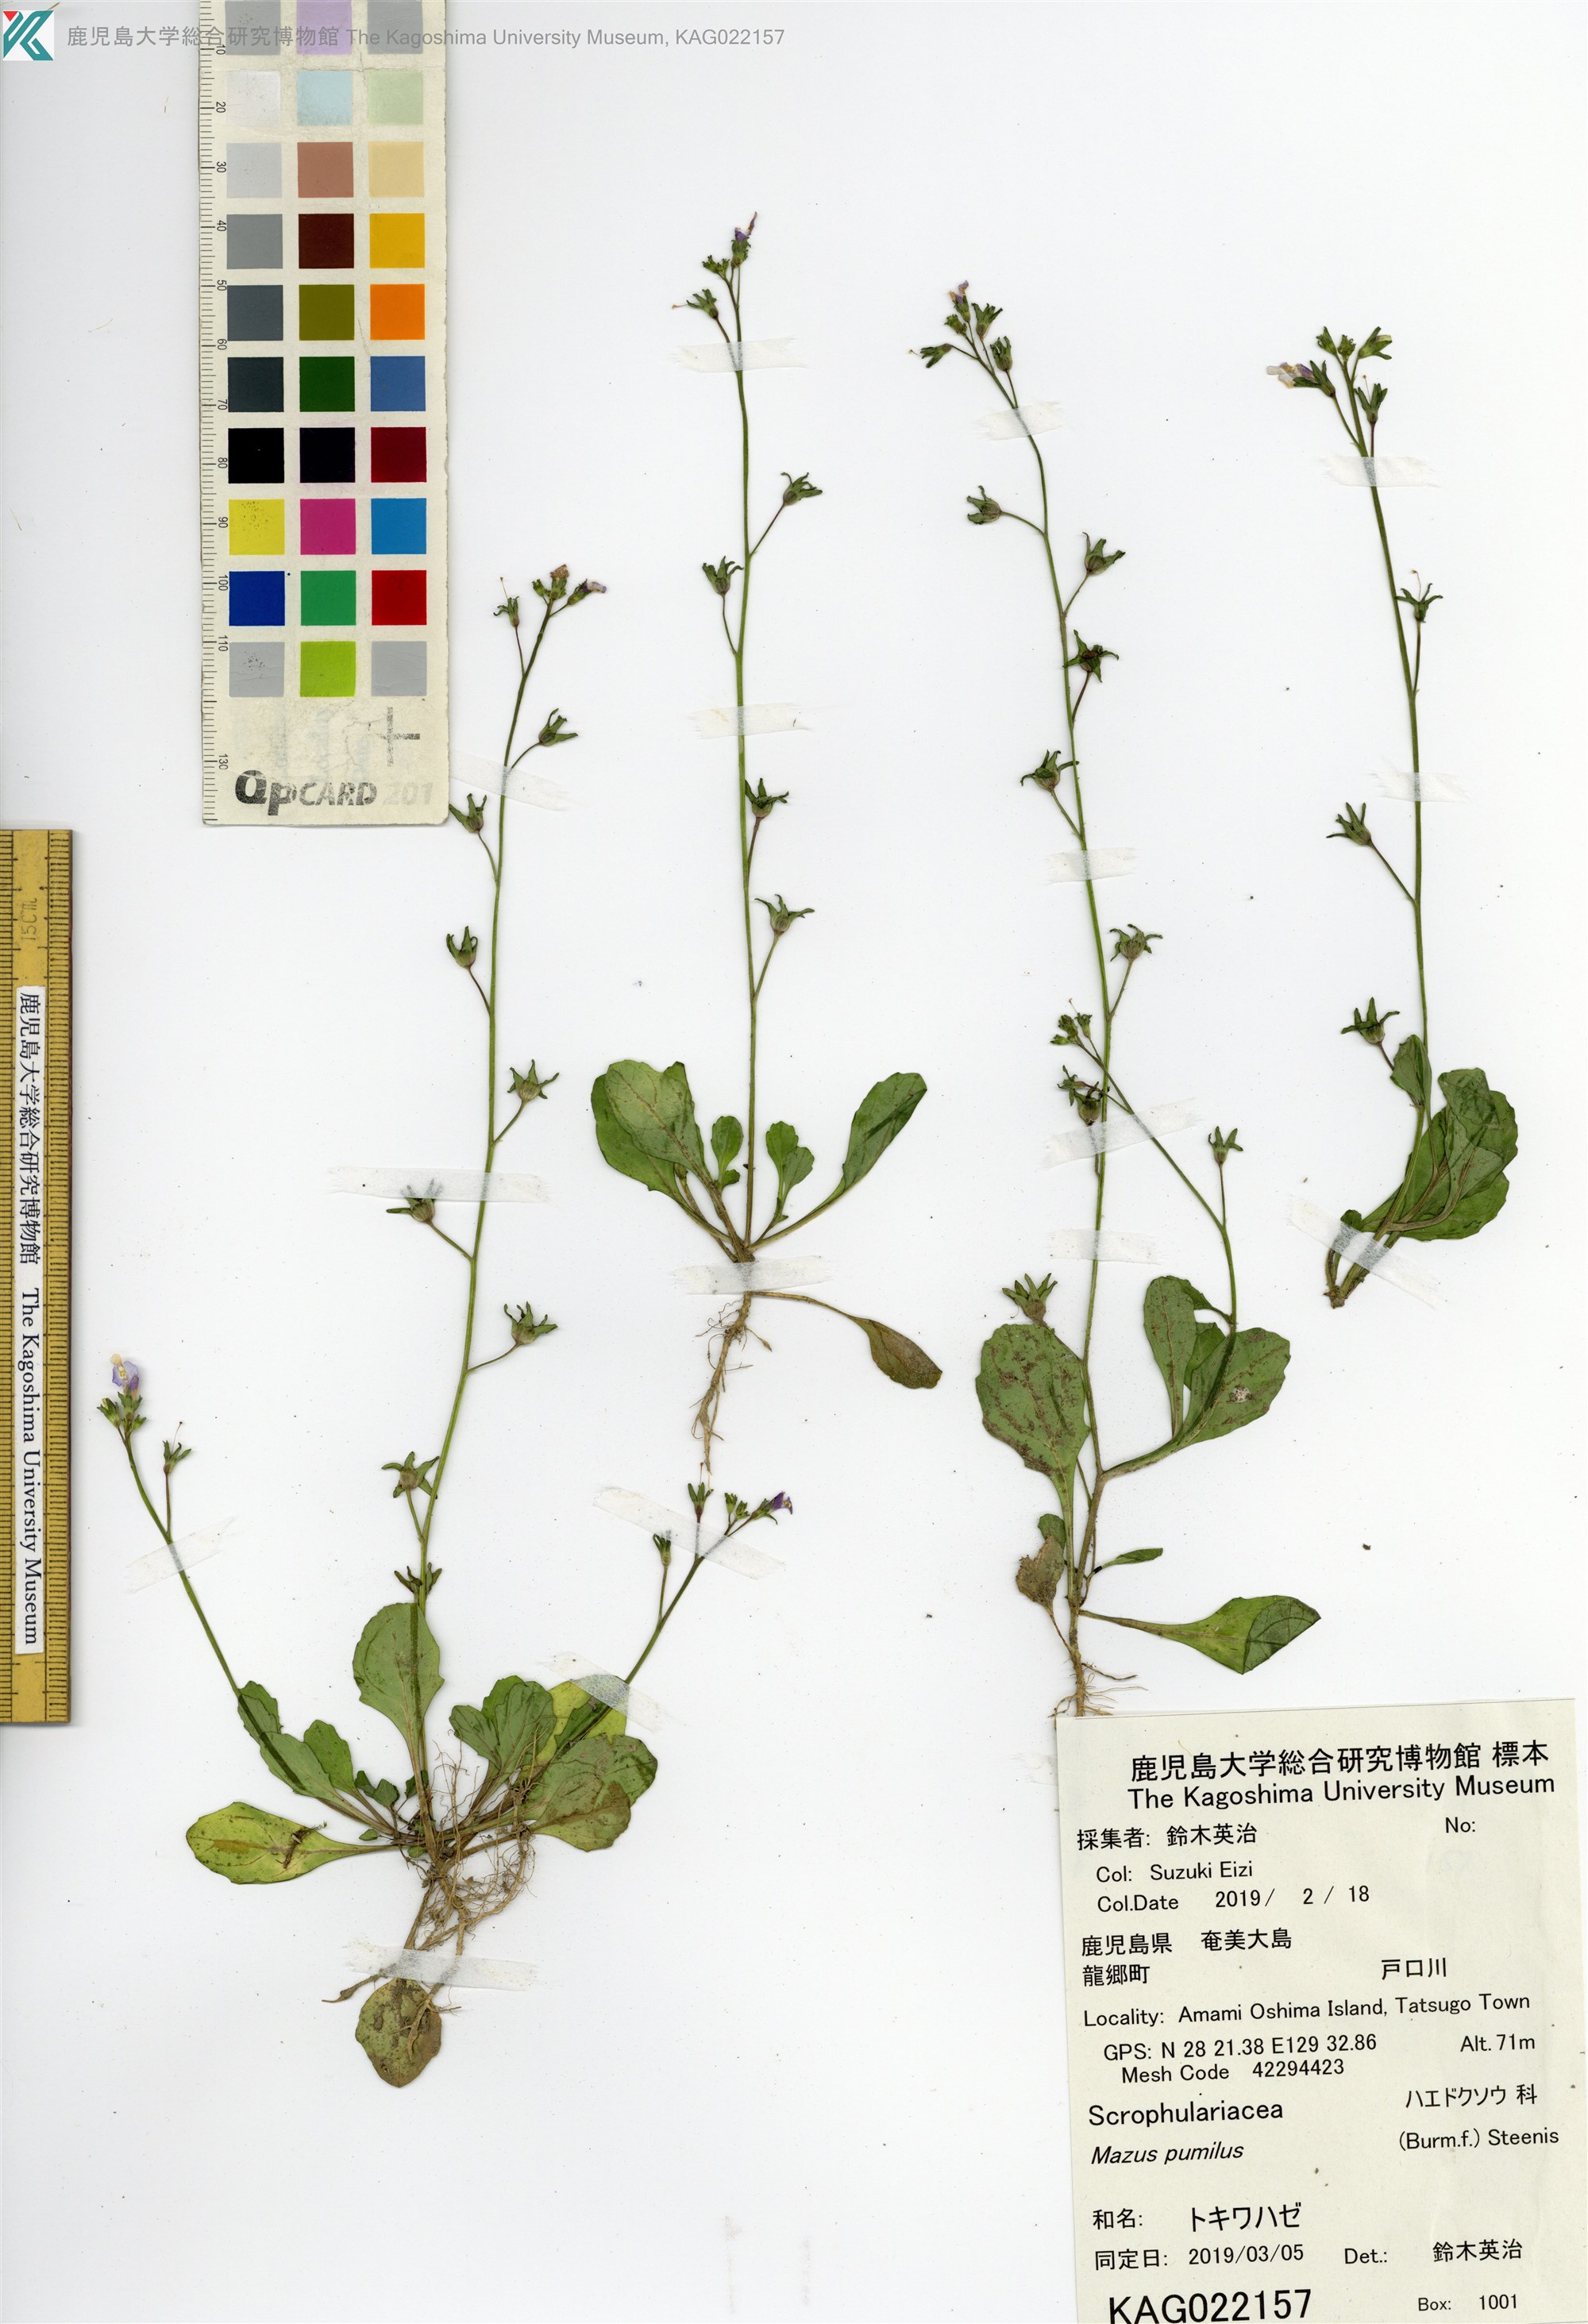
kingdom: Plantae
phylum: Tracheophyta
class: Magnoliopsida
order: Lamiales
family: Mazaceae
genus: Mazus
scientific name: Mazus pumilus
